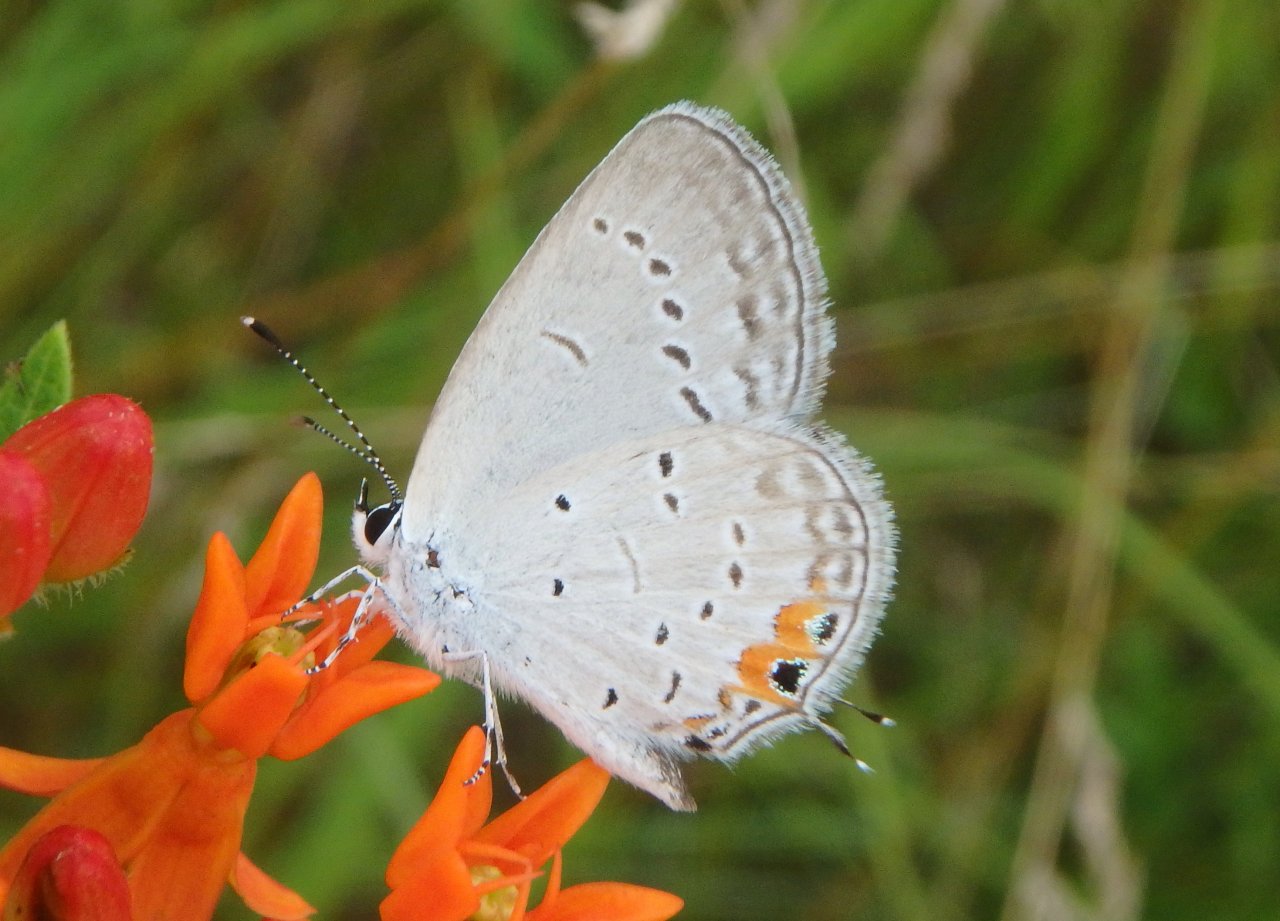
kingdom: Animalia
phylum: Arthropoda
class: Insecta
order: Lepidoptera
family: Lycaenidae
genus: Elkalyce
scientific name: Elkalyce comyntas
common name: Eastern Tailed-Blue
